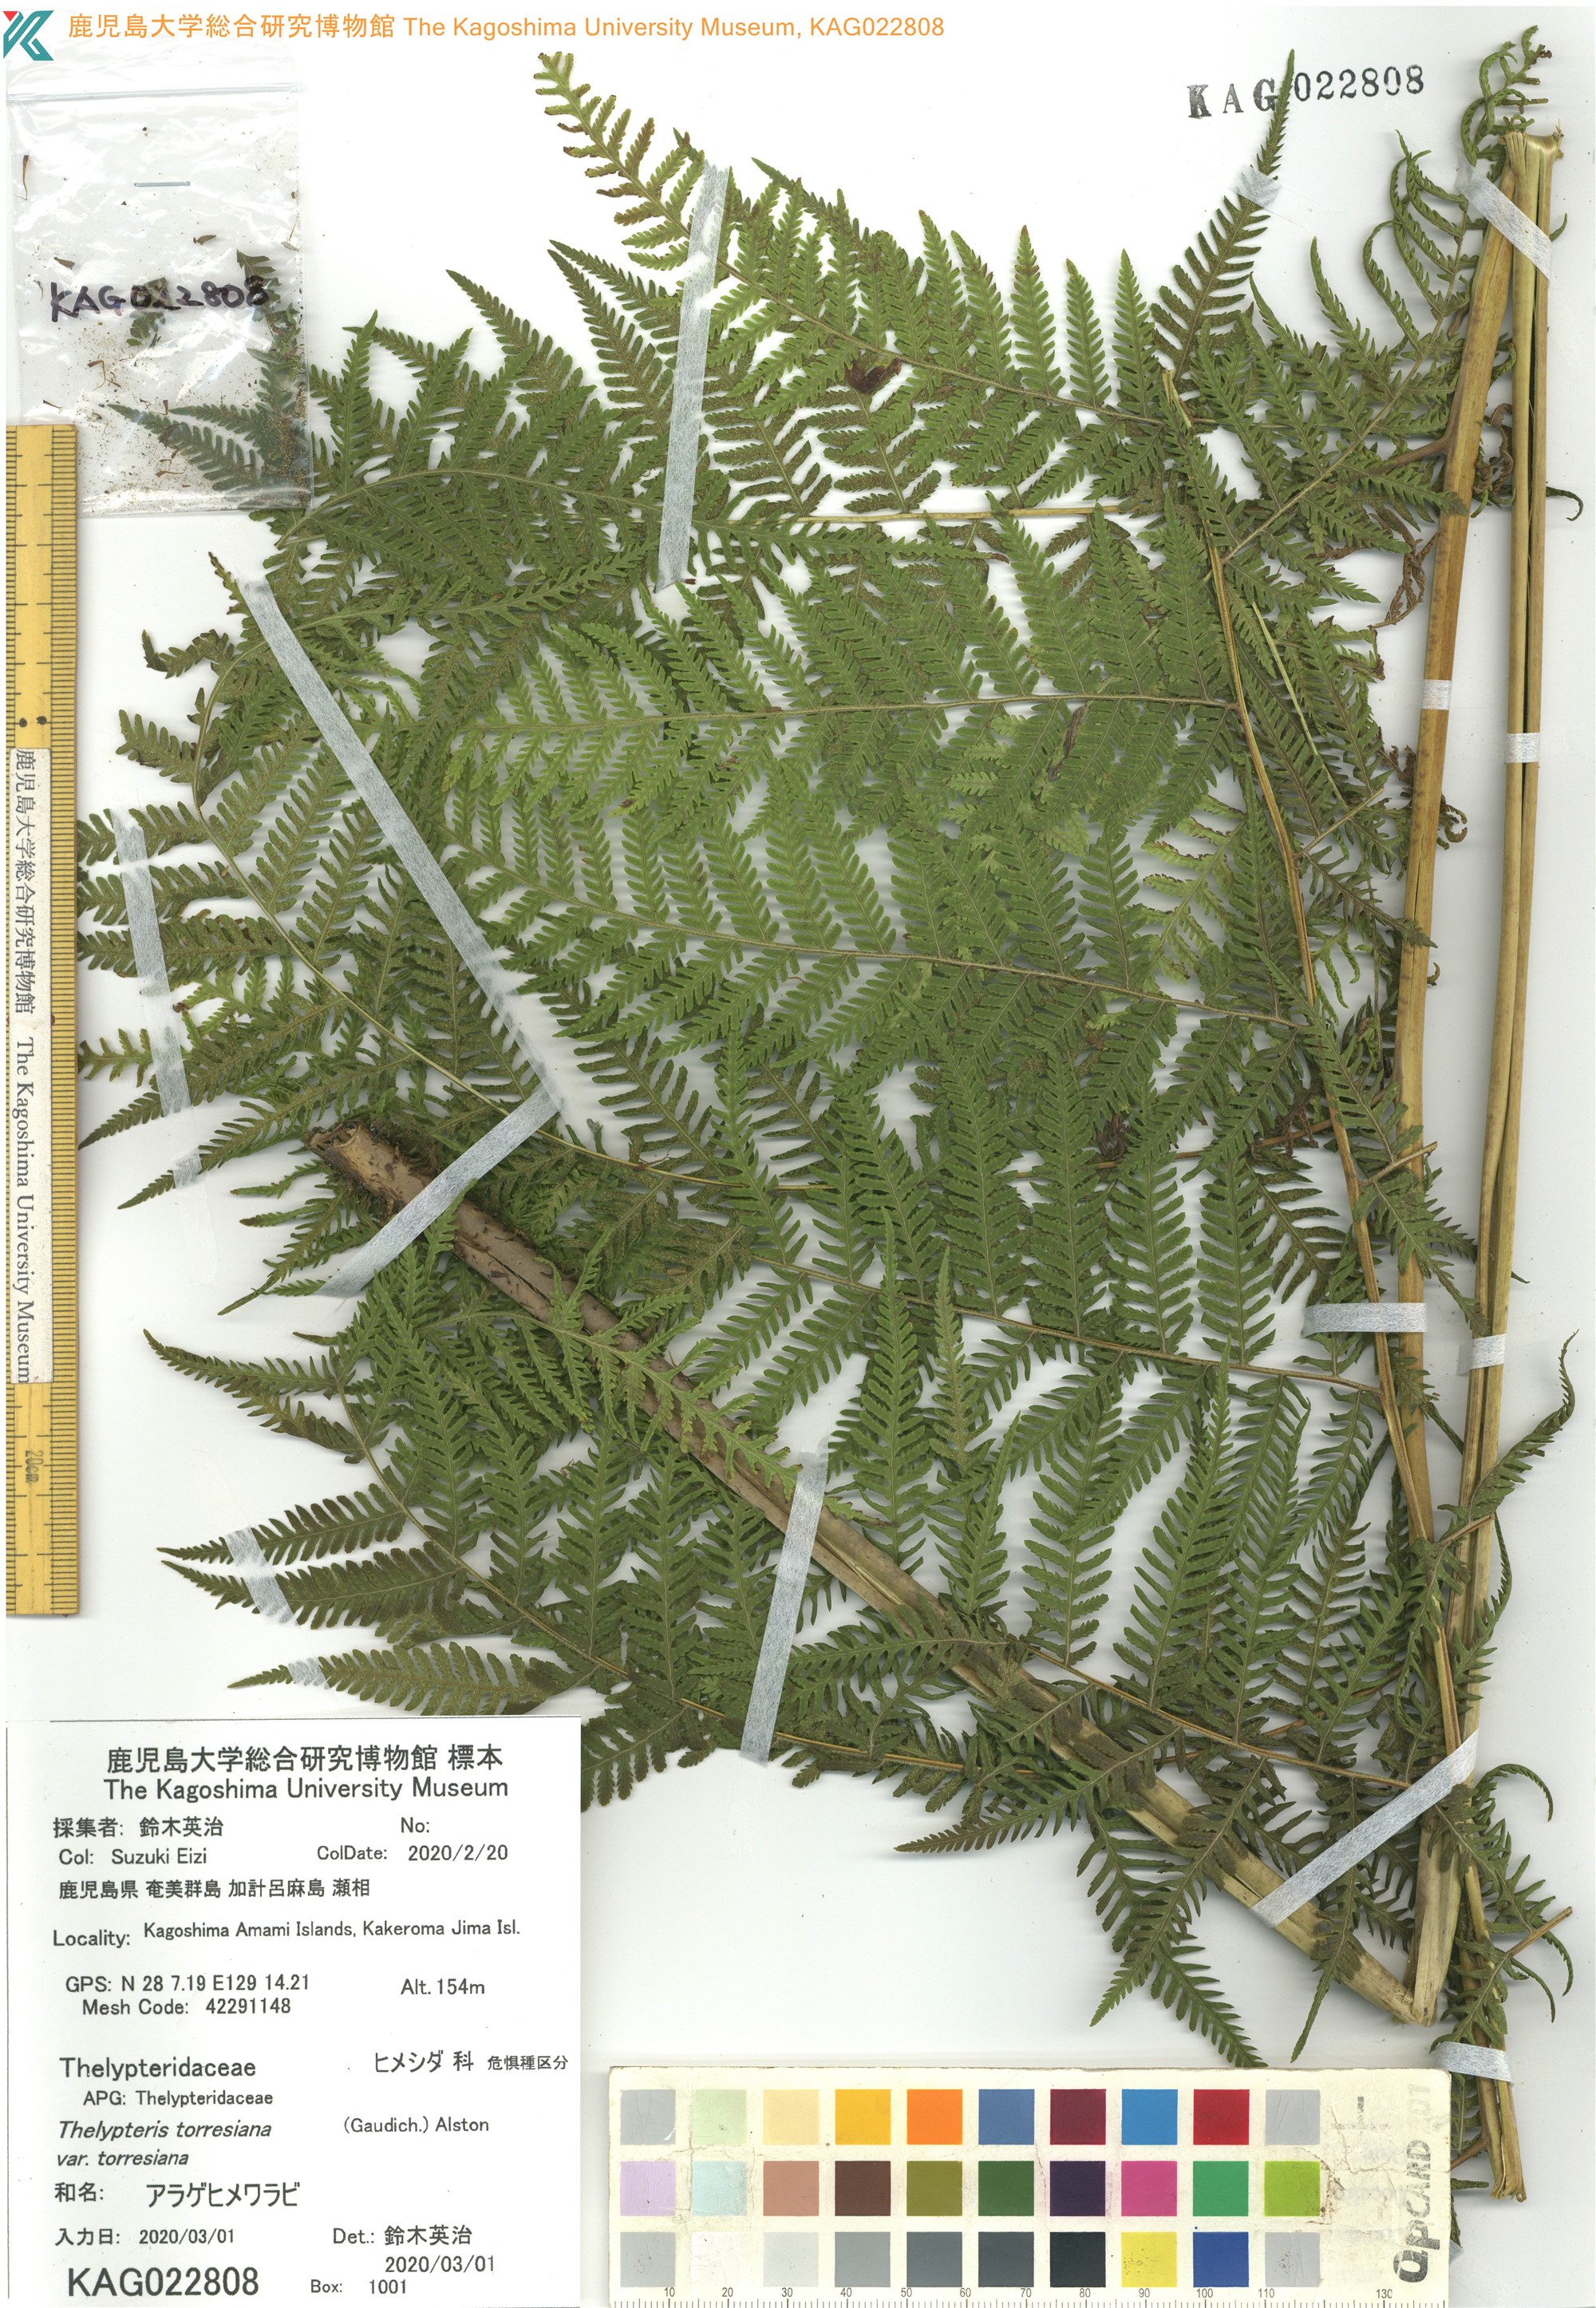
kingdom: Plantae
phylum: Tracheophyta
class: Polypodiopsida
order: Polypodiales
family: Thelypteridaceae
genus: Macrothelypteris
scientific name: Macrothelypteris torresiana
